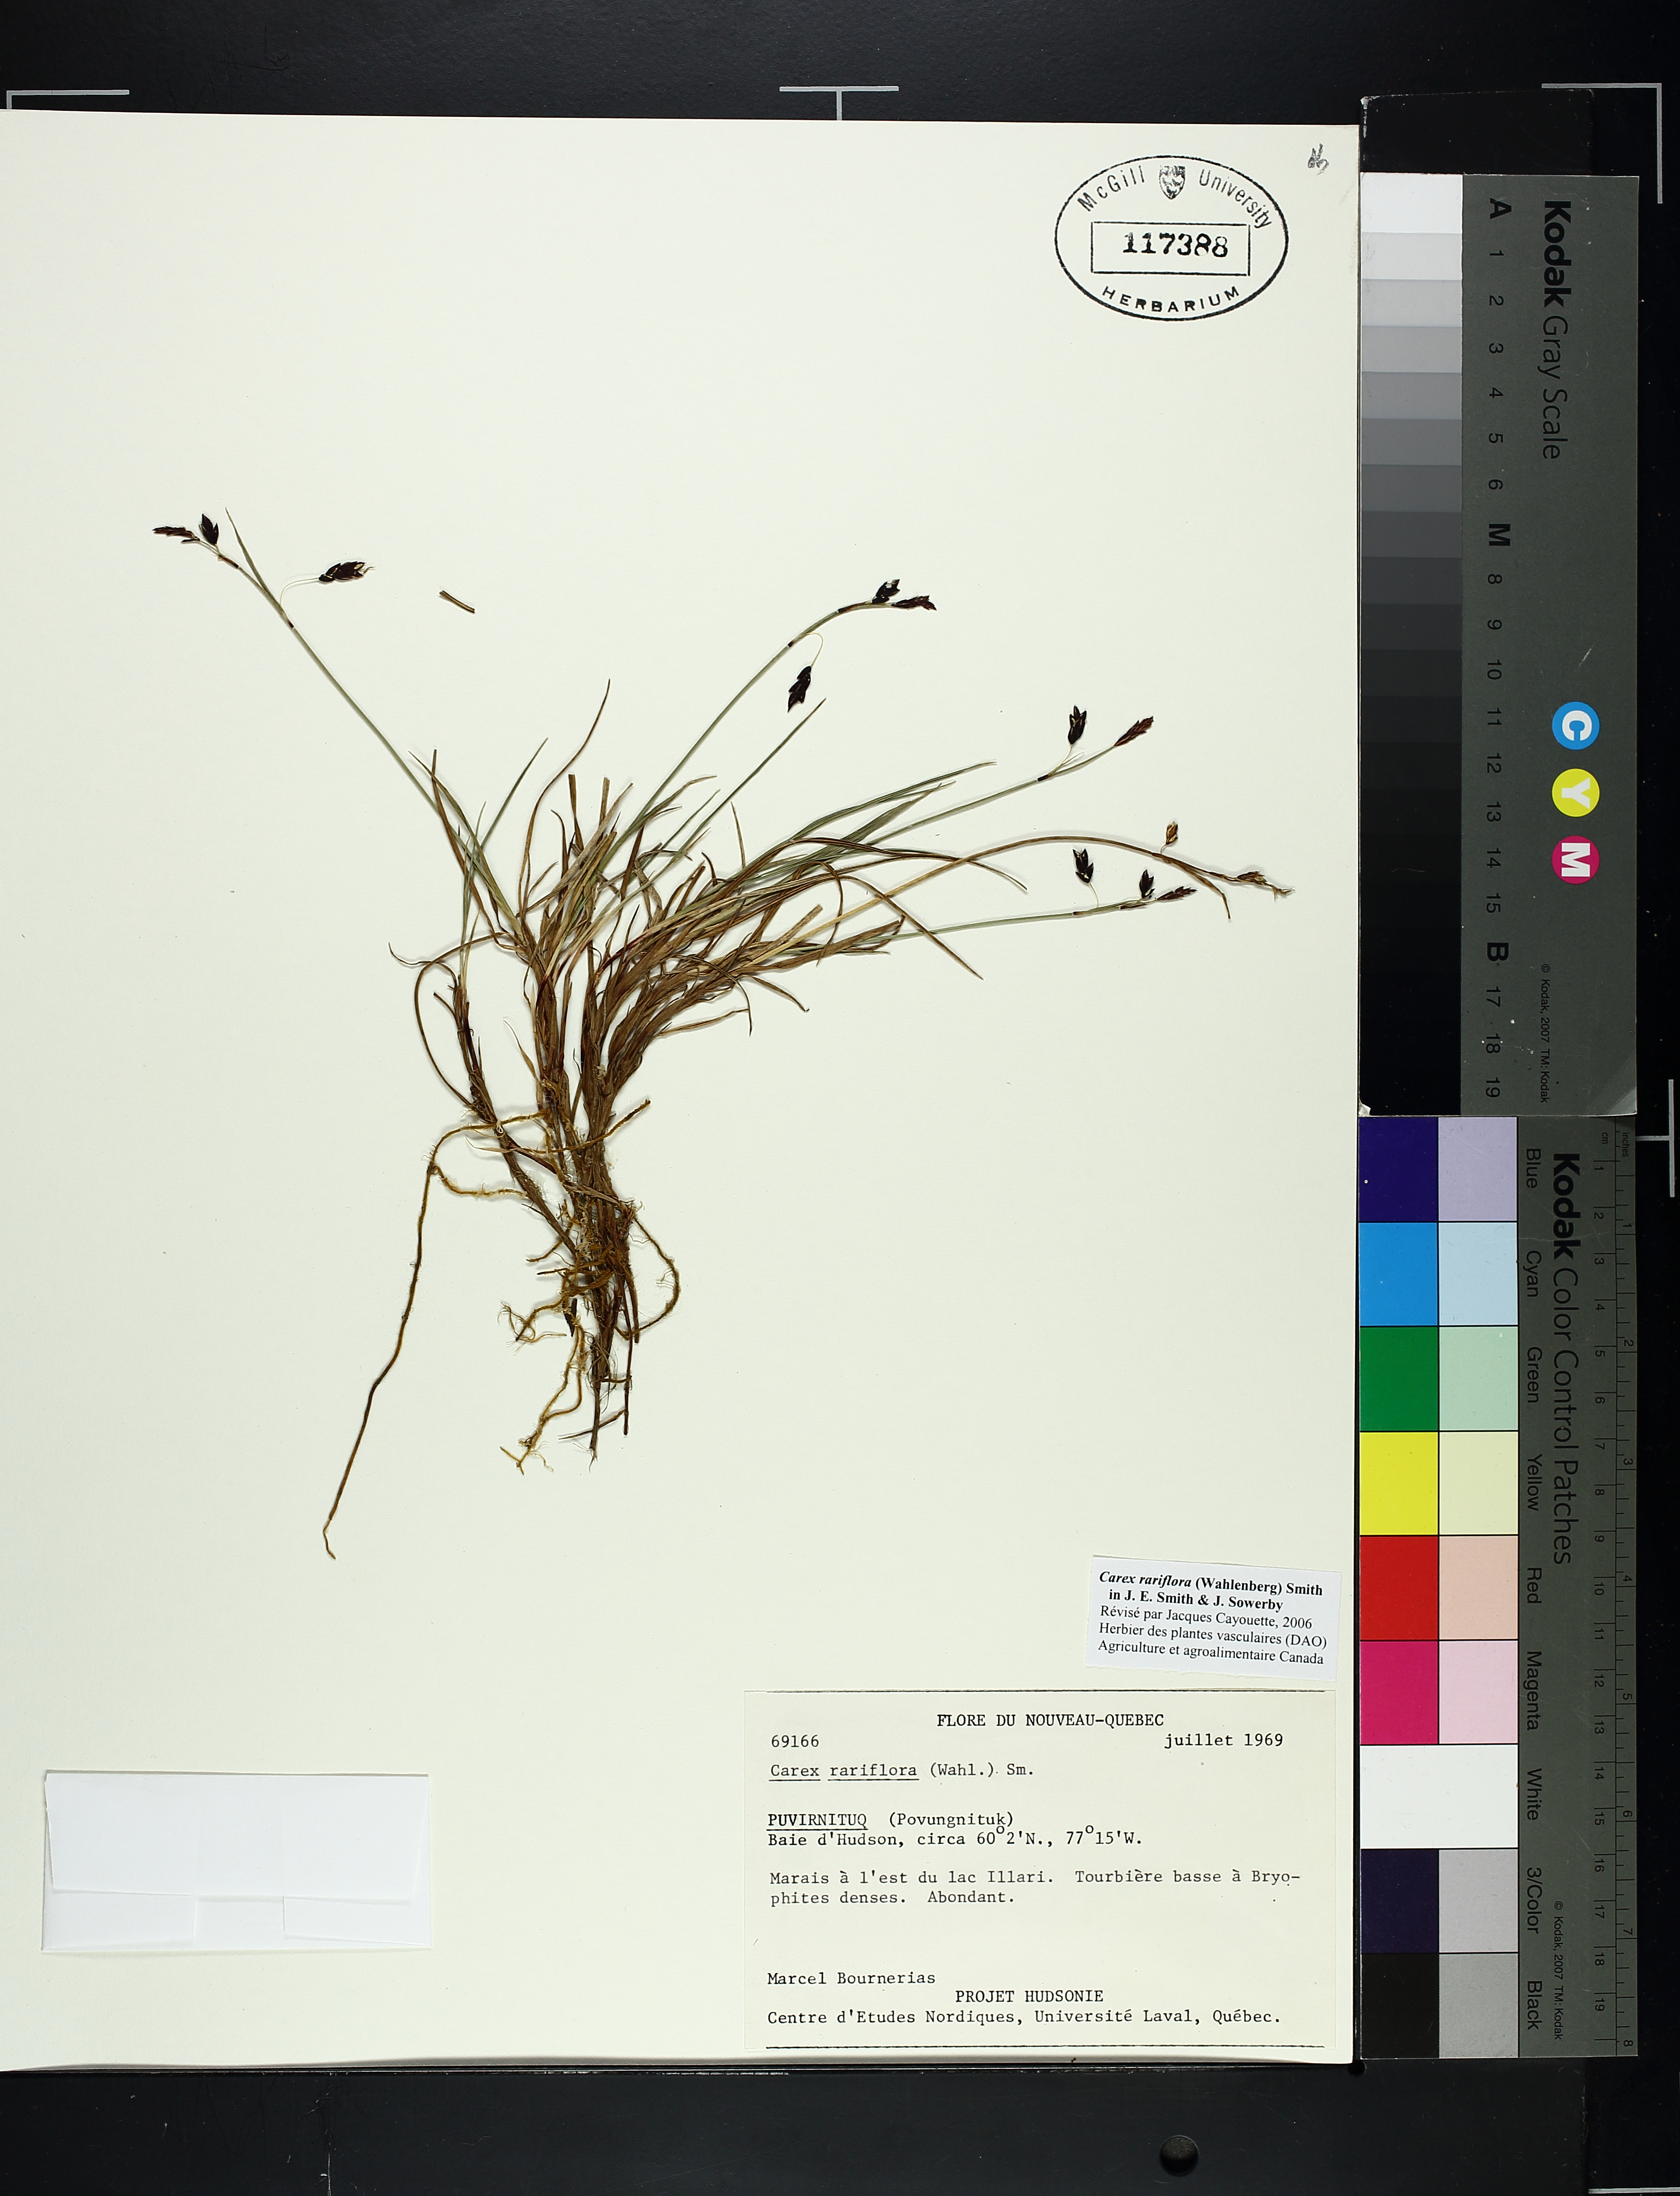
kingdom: Plantae
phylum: Tracheophyta
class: Liliopsida
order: Poales
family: Cyperaceae
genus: Carex
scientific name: Carex pellita
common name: Woolly sedge
